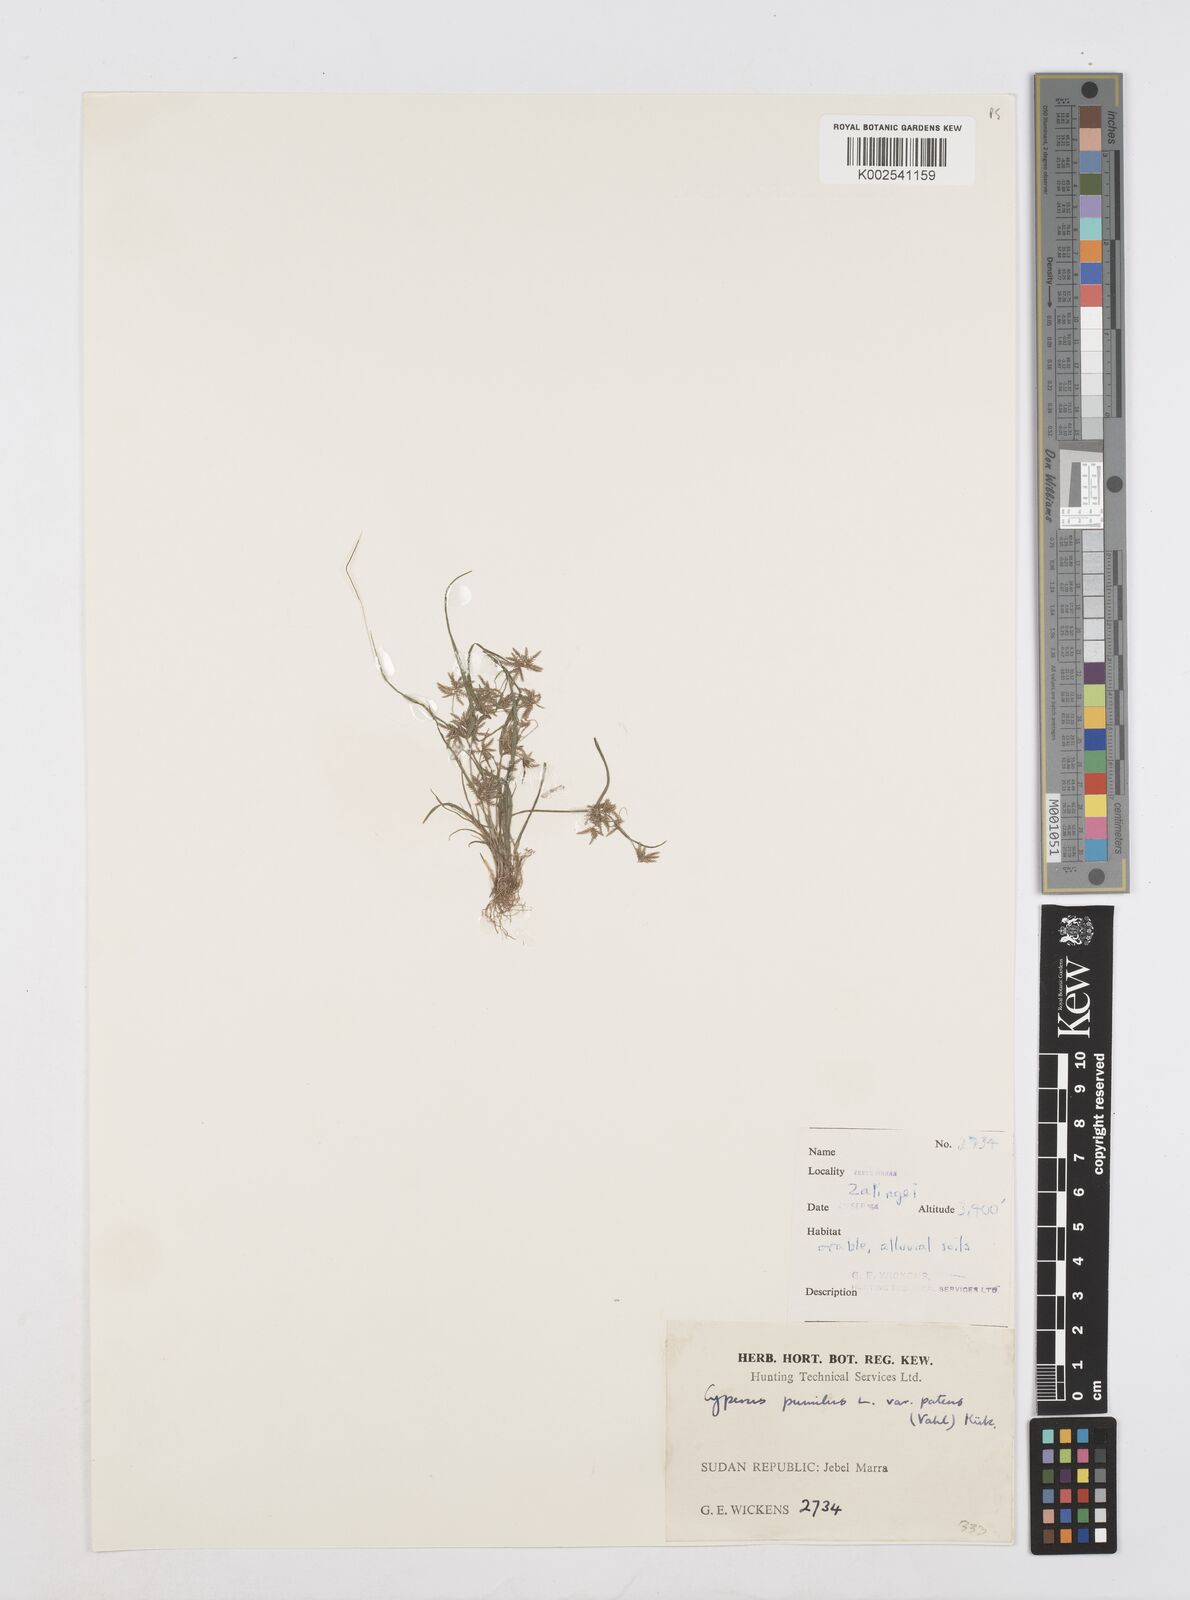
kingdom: Plantae
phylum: Tracheophyta
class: Liliopsida
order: Poales
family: Cyperaceae
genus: Cyperus
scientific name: Cyperus pumilus
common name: Low flatsedge
